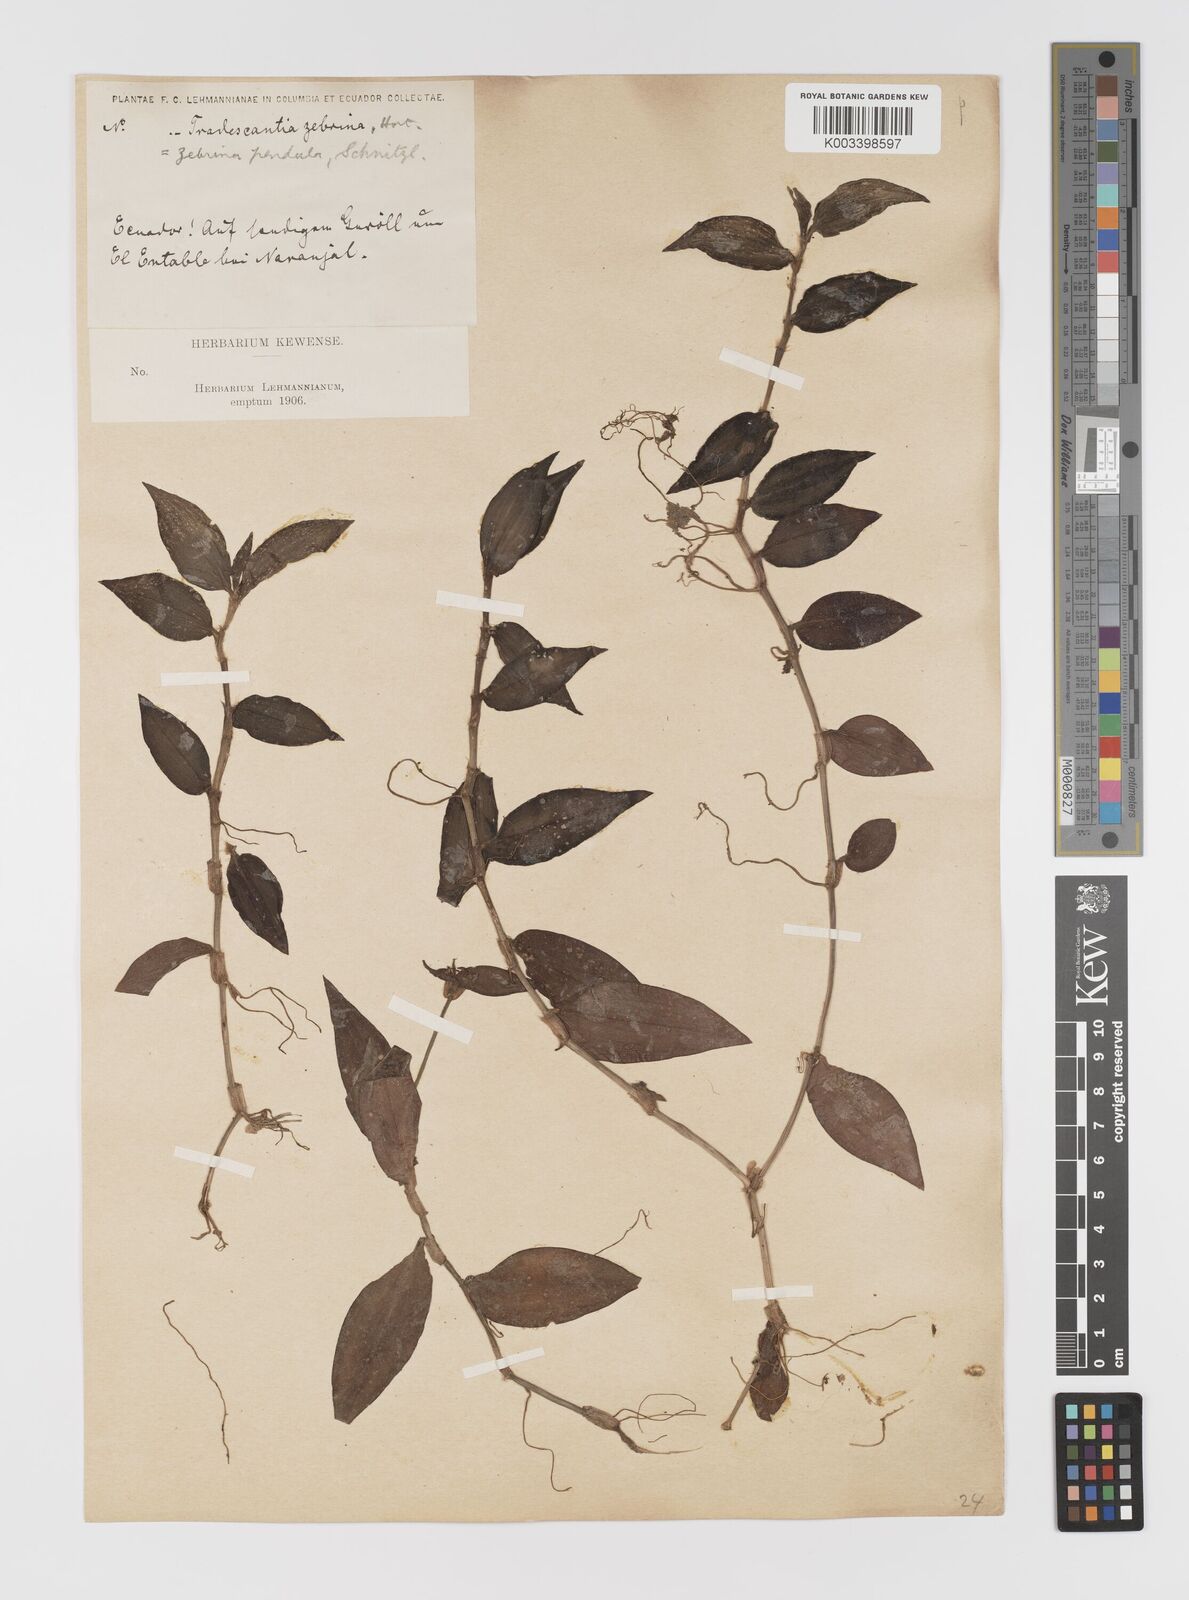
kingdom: Plantae
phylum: Tracheophyta
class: Liliopsida
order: Commelinales
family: Commelinaceae
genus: Tradescantia
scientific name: Tradescantia zebrina
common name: Inchplant
